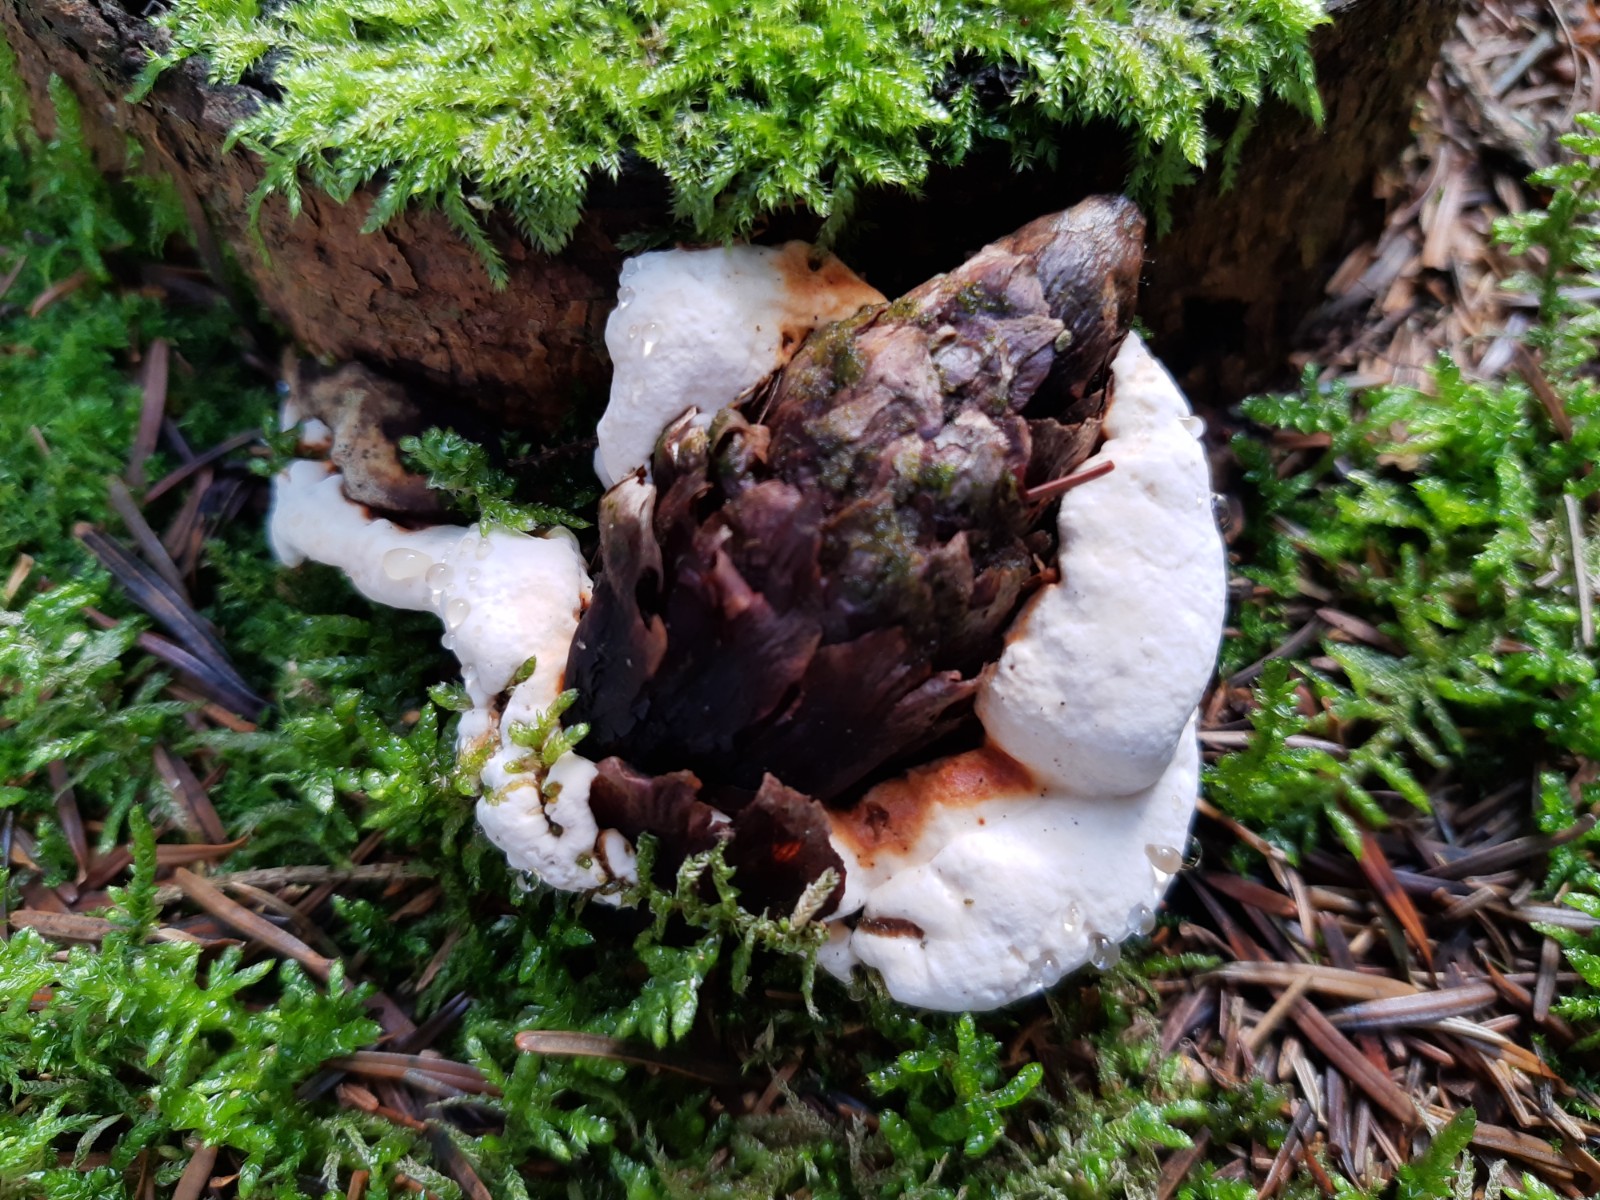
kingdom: Fungi
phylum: Basidiomycota
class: Agaricomycetes
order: Russulales
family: Bondarzewiaceae
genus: Heterobasidion
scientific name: Heterobasidion
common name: rodfordærver
